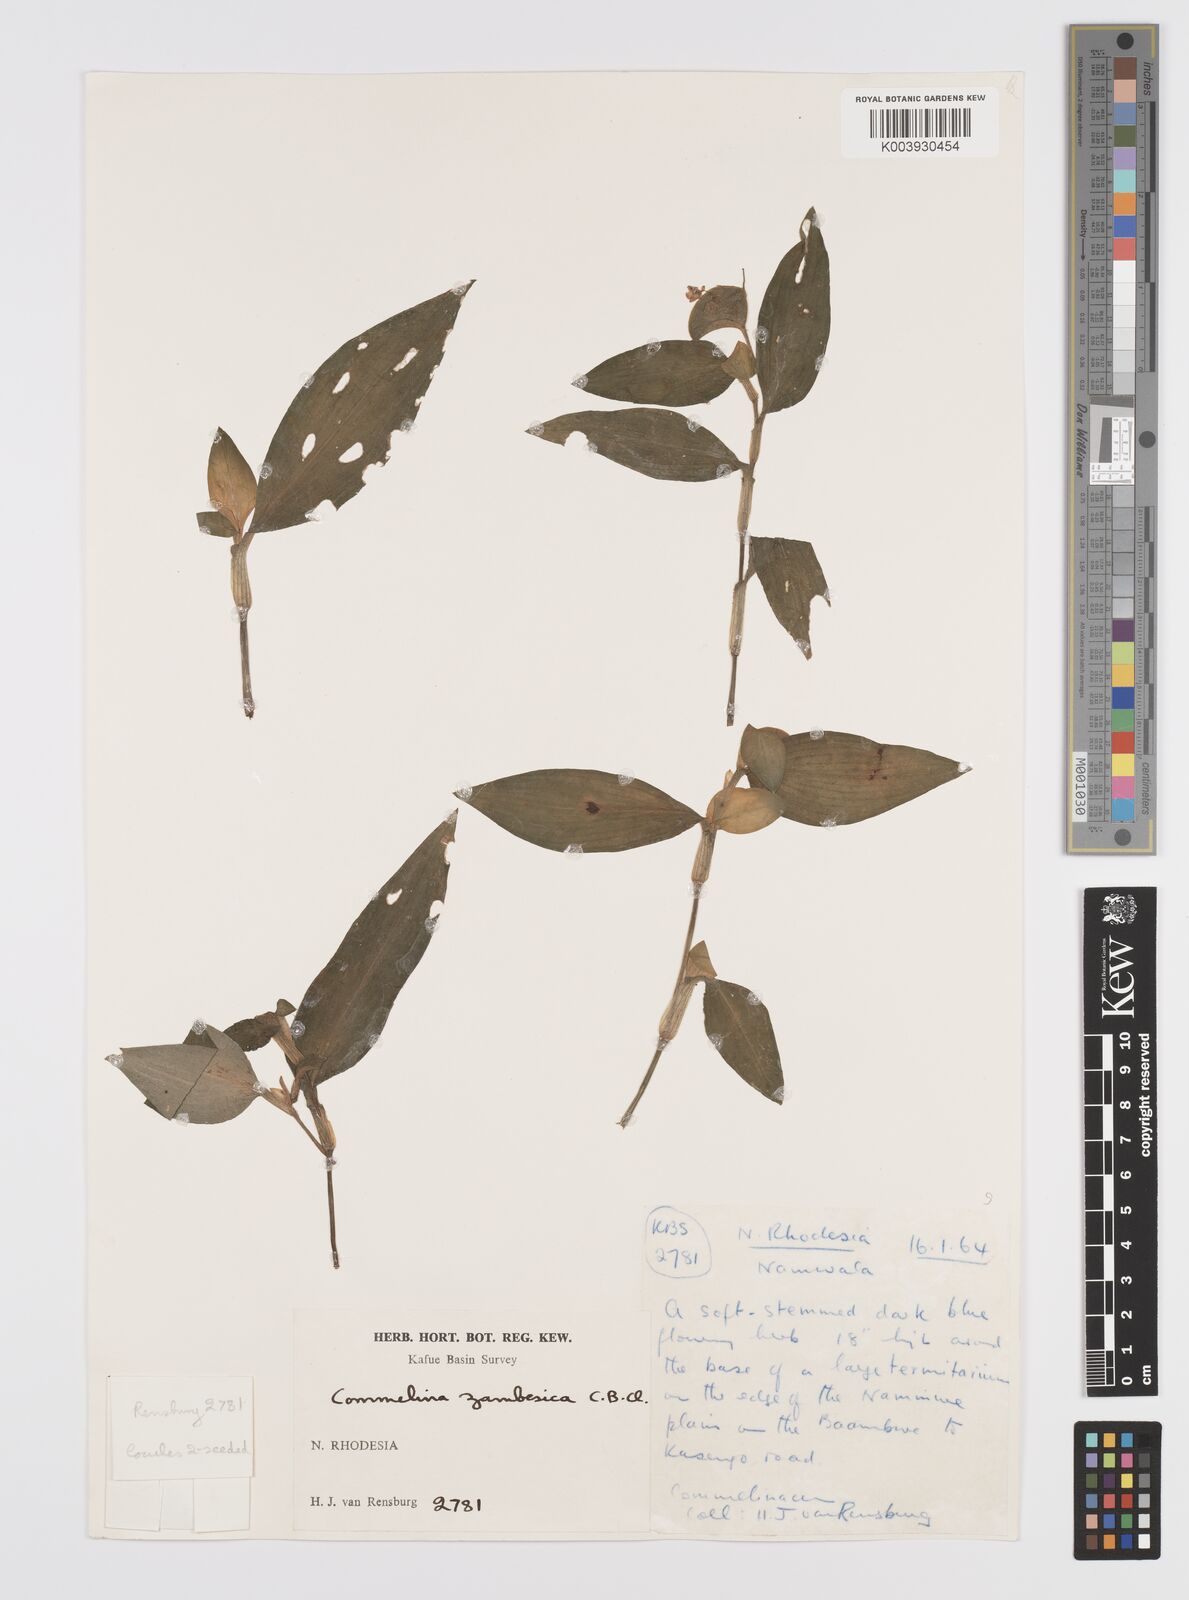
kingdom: Plantae
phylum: Tracheophyta
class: Liliopsida
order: Commelinales
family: Commelinaceae
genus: Commelina
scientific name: Commelina zambesica
